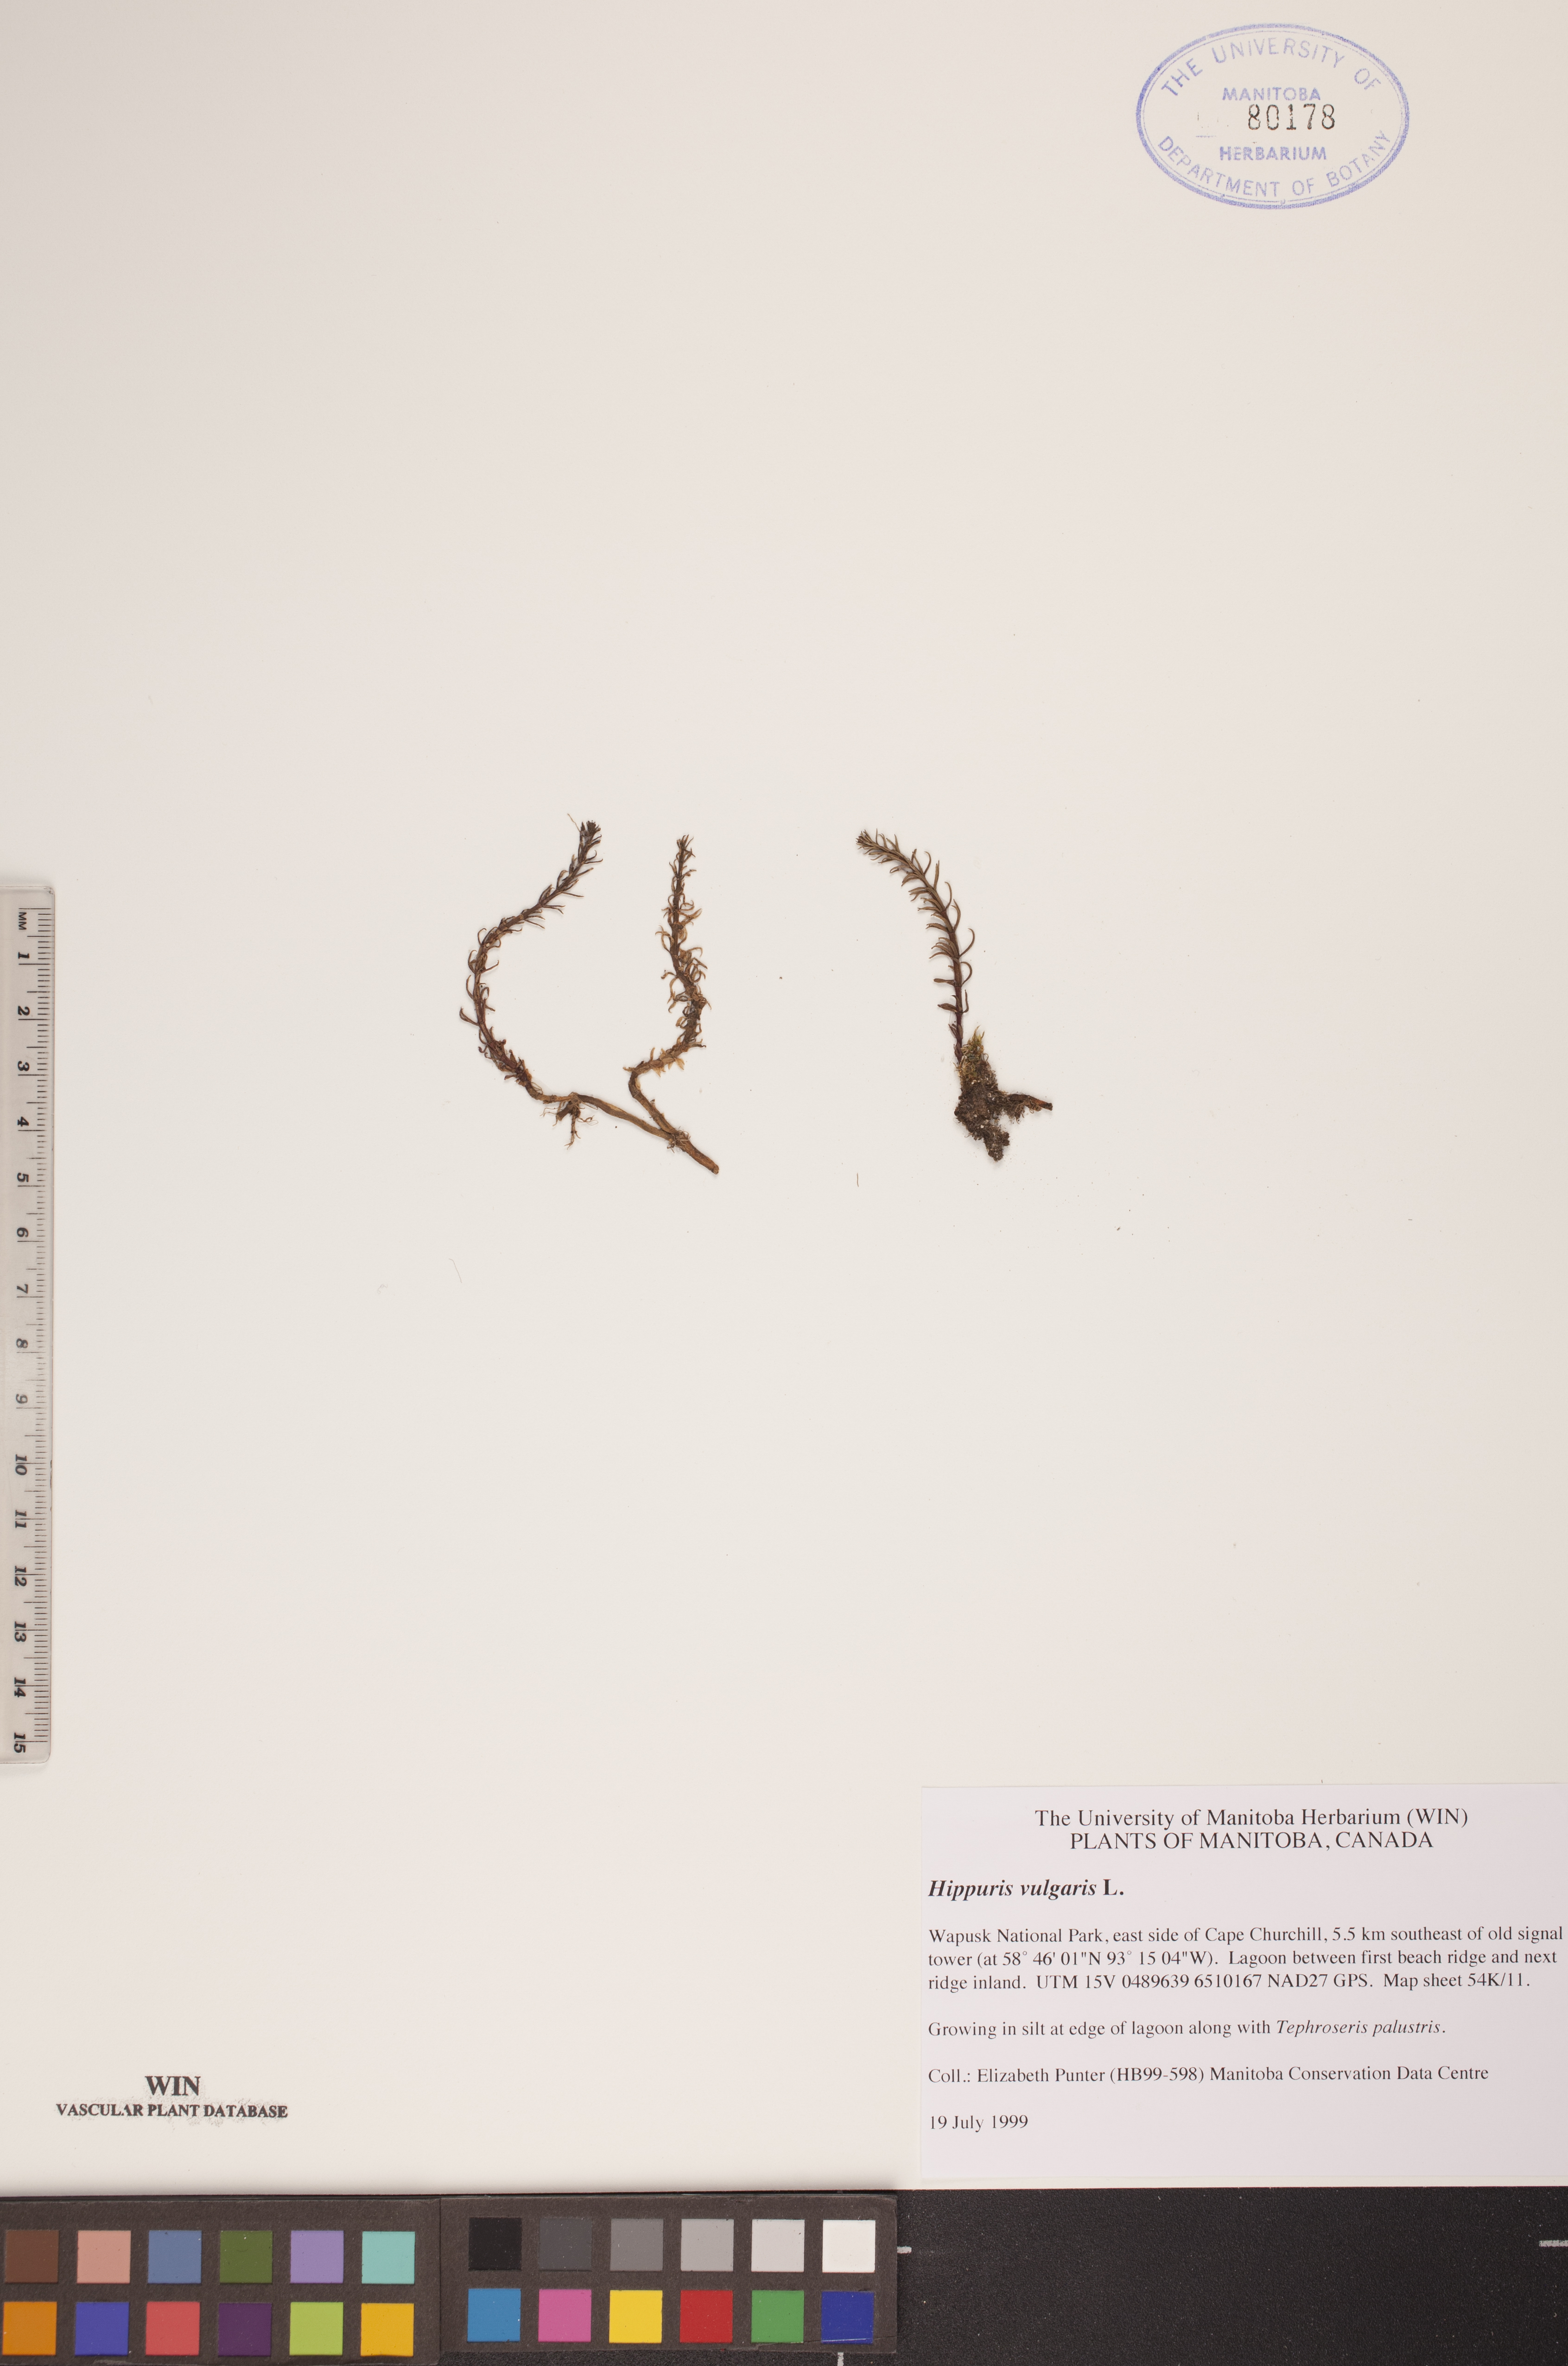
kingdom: Plantae
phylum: Tracheophyta
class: Magnoliopsida
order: Lamiales
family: Plantaginaceae
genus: Hippuris
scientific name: Hippuris vulgaris
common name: Mare's-tail
